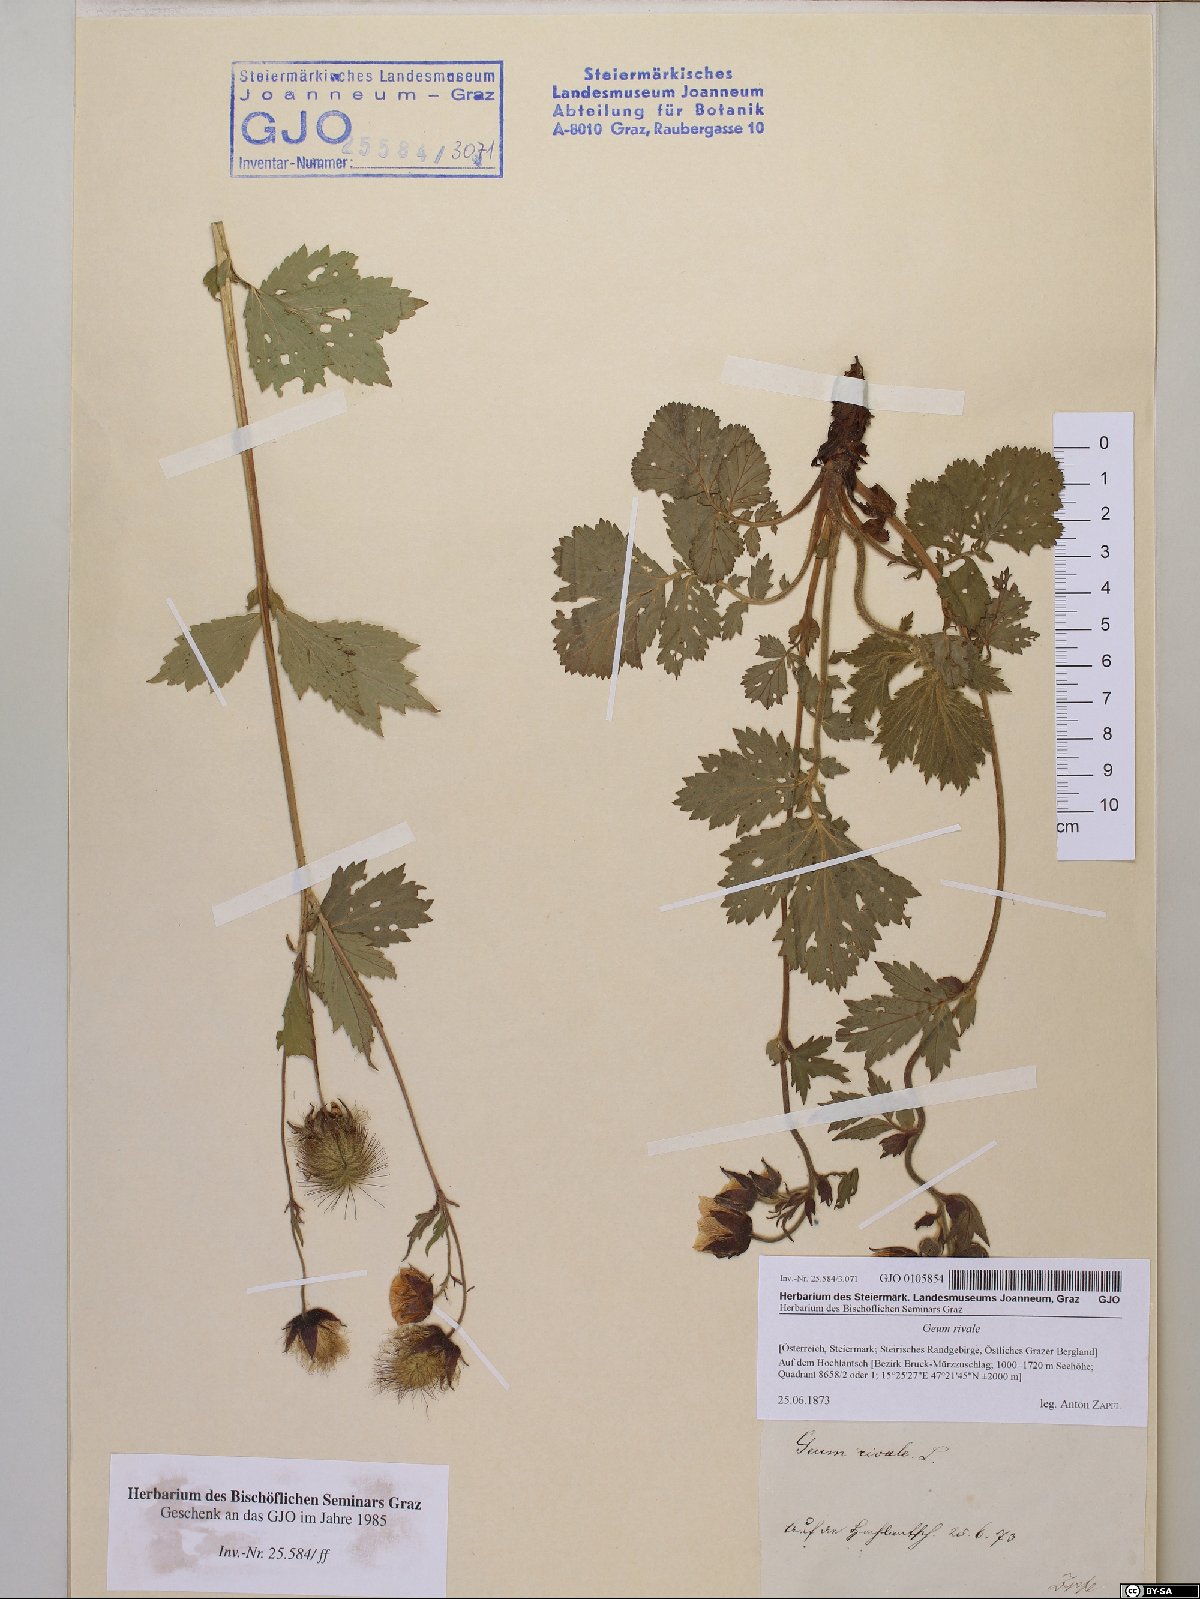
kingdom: Plantae
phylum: Tracheophyta
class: Magnoliopsida
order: Rosales
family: Rosaceae
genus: Geum
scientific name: Geum rivale
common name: Water avens
